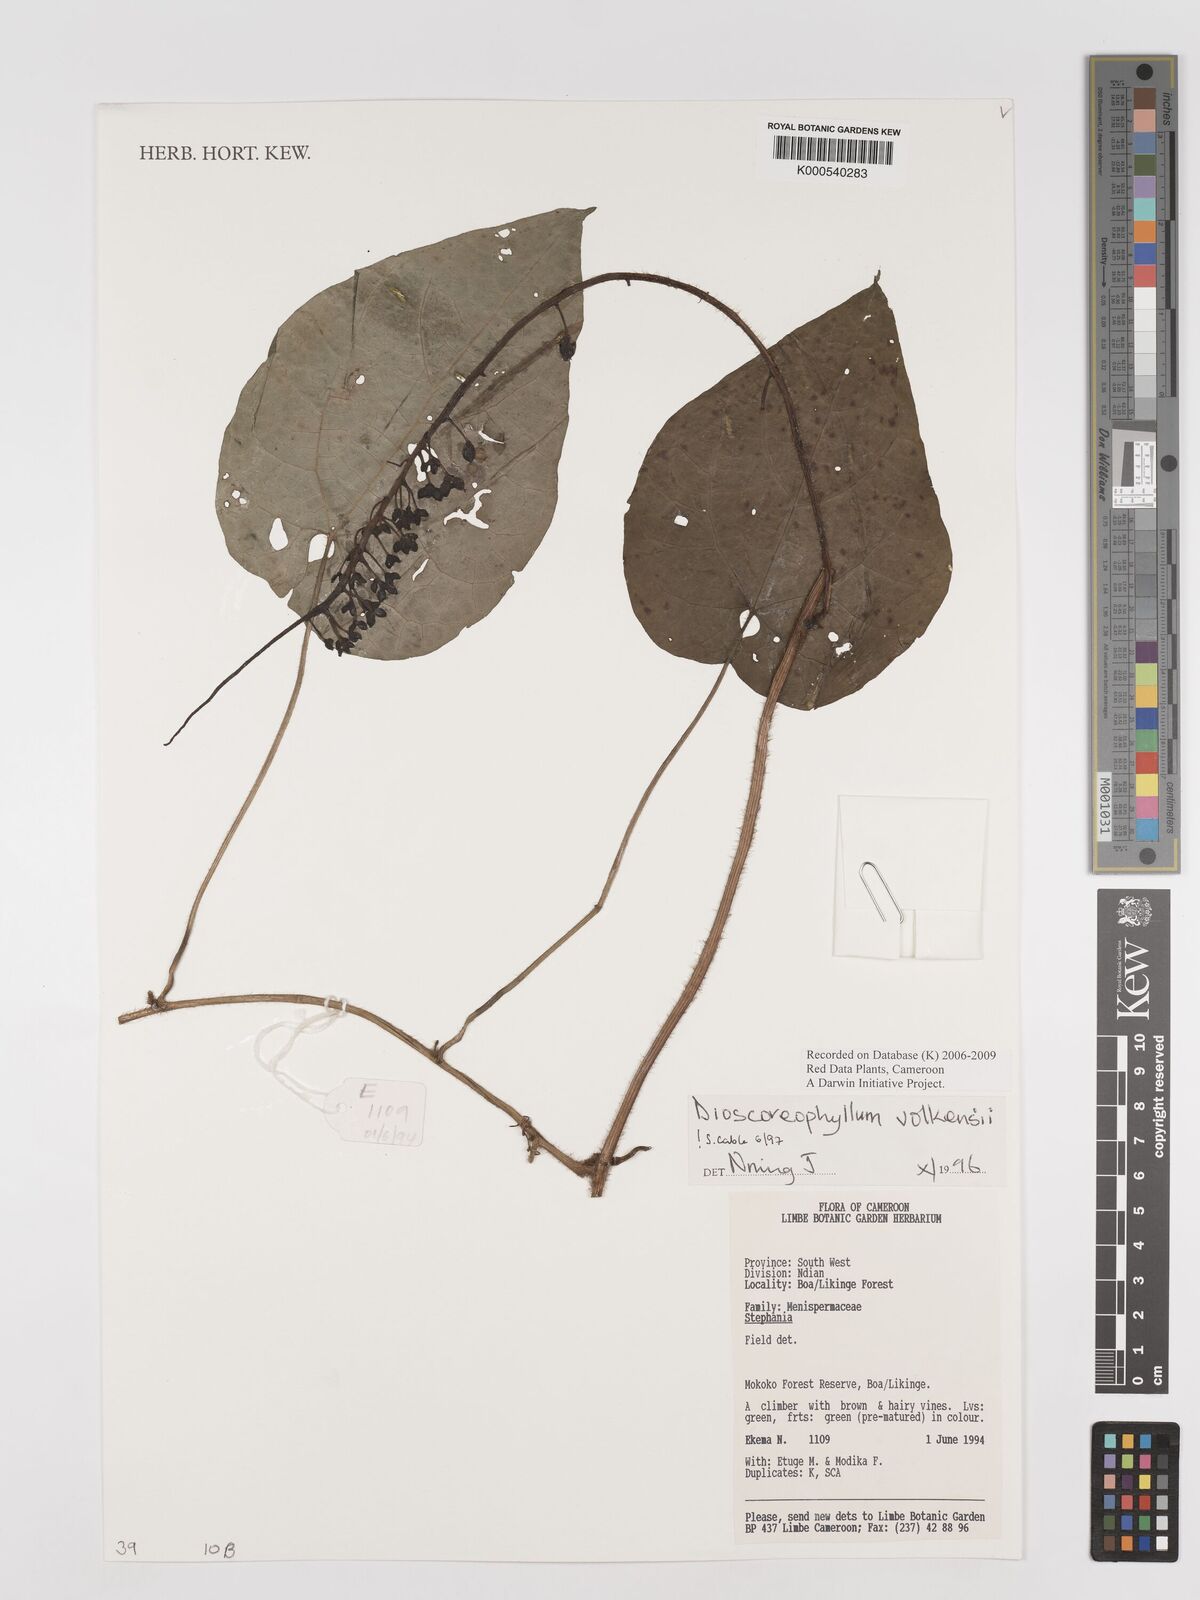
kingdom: Plantae
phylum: Tracheophyta
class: Magnoliopsida
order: Ranunculales
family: Menispermaceae
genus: Dioscoreophyllum
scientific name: Dioscoreophyllum
